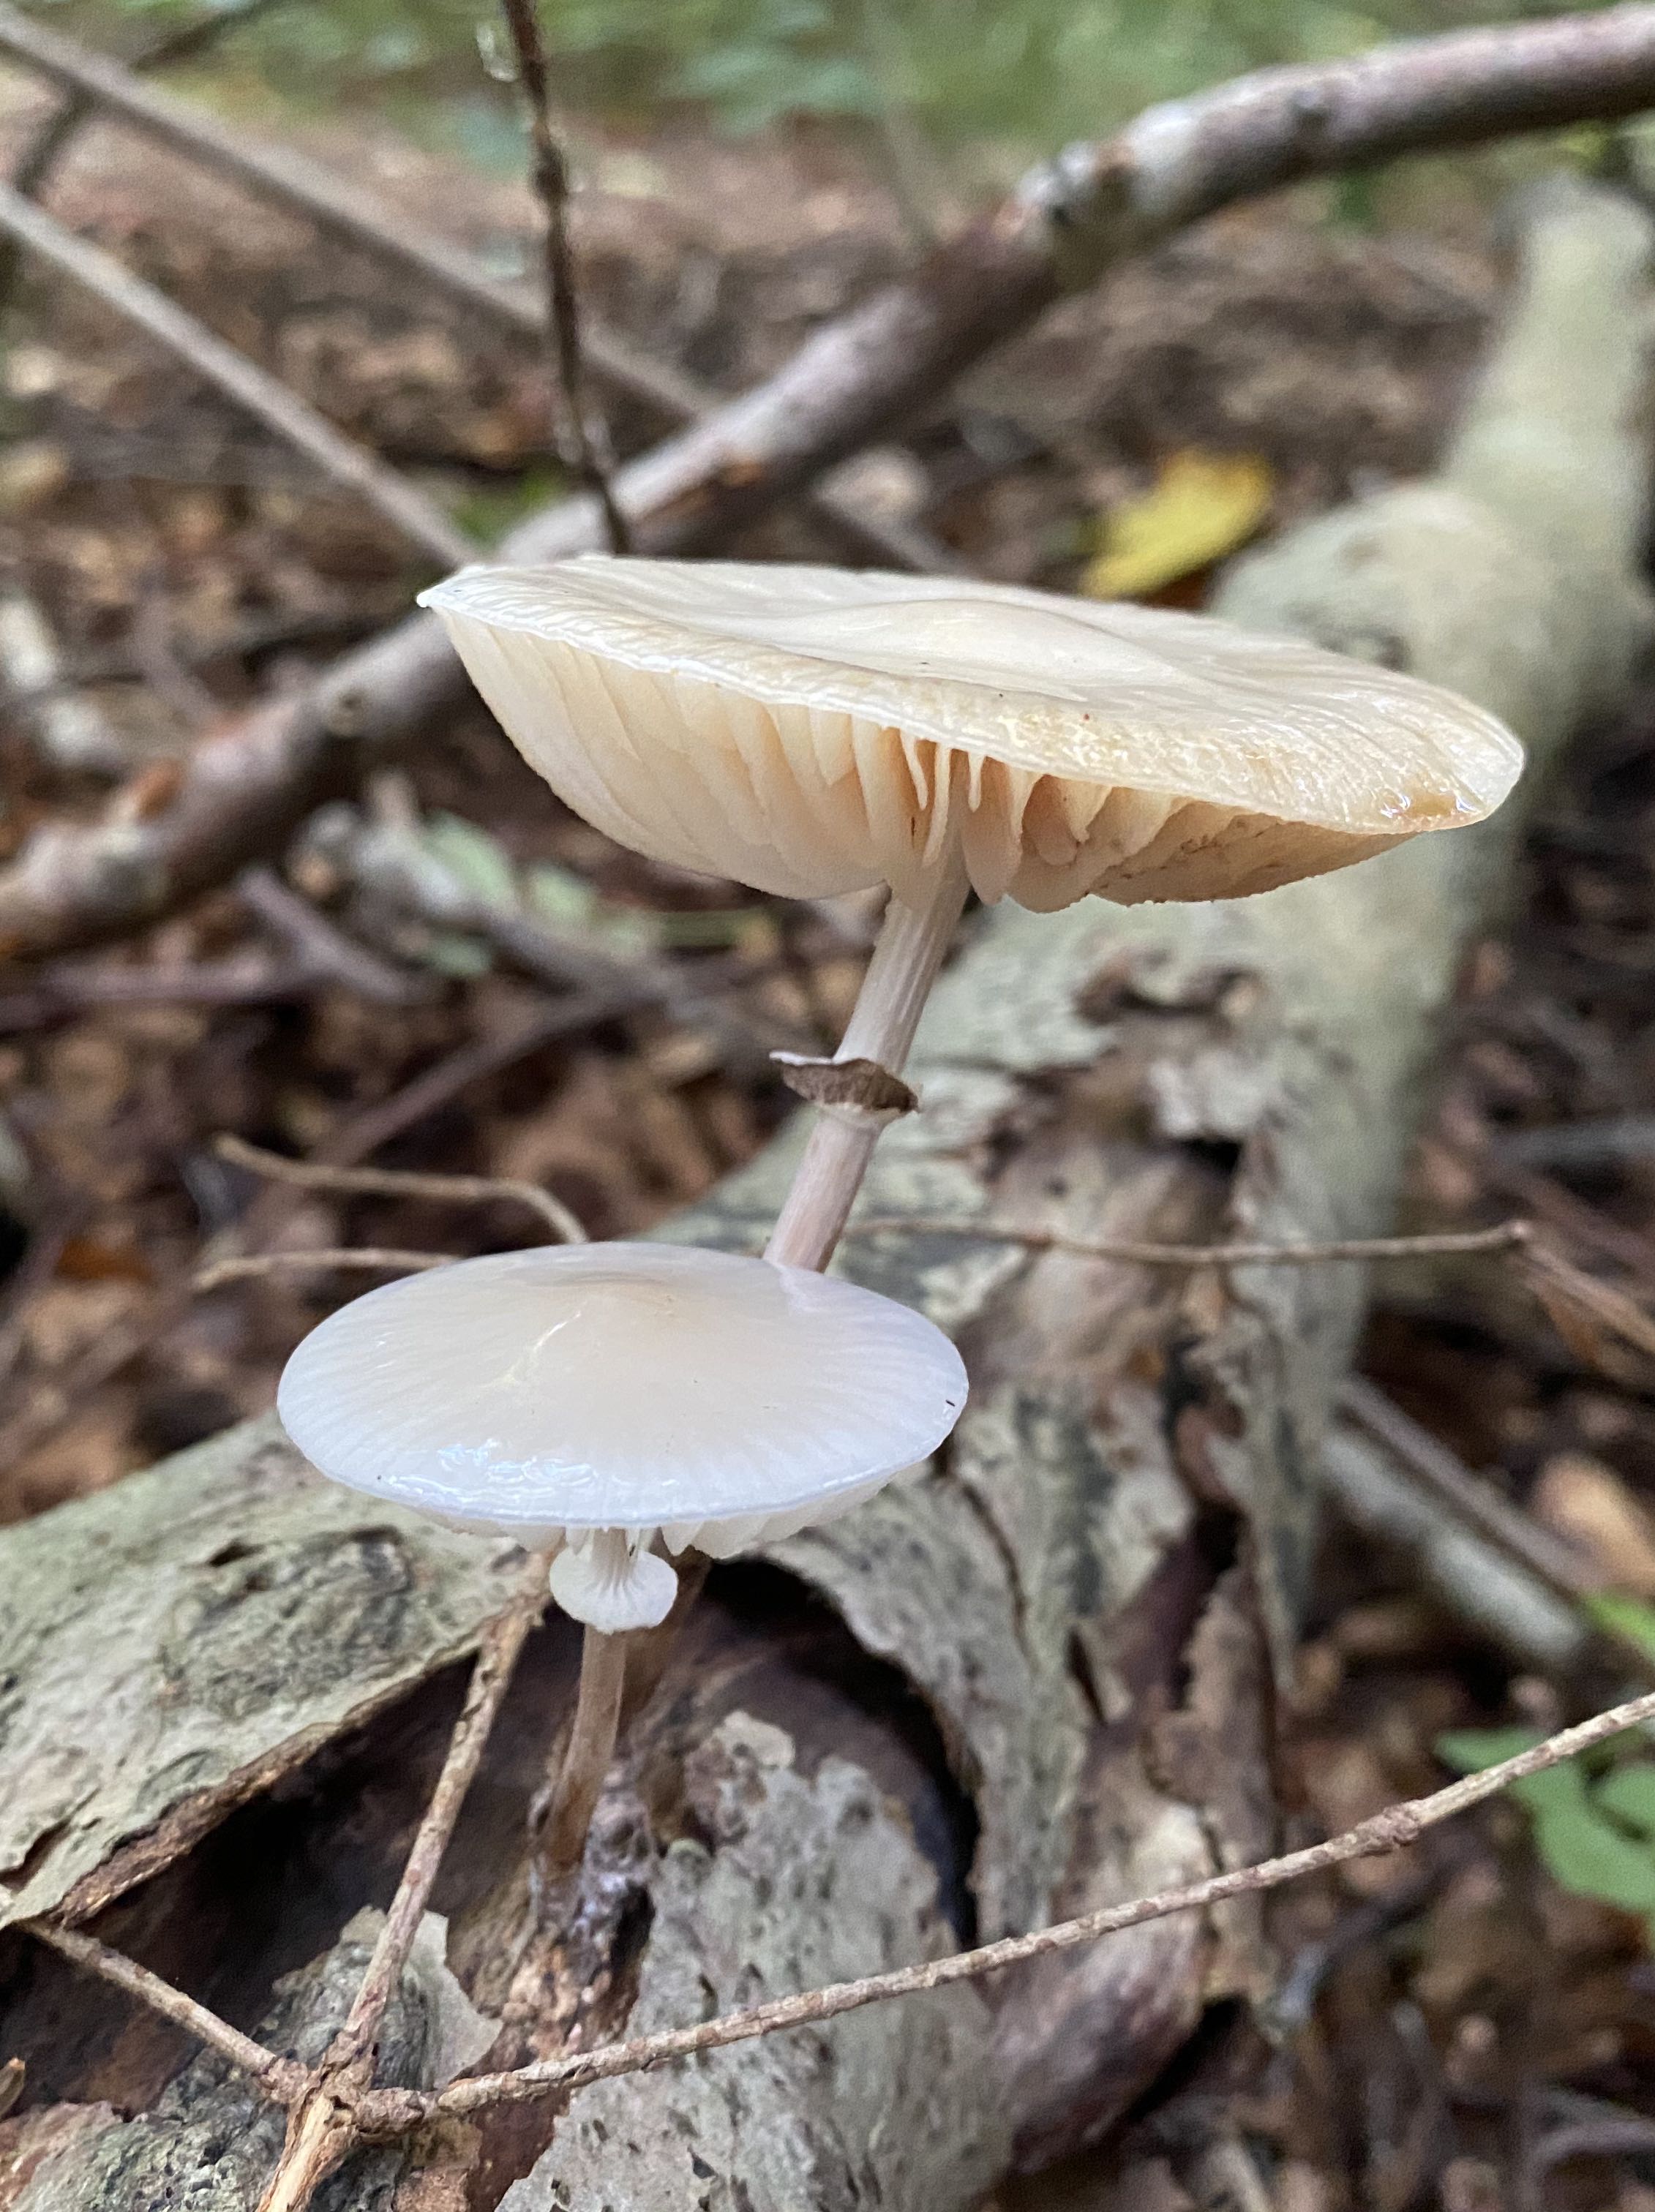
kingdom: Fungi
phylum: Basidiomycota
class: Agaricomycetes
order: Agaricales
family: Physalacriaceae
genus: Mucidula
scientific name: Mucidula mucida
